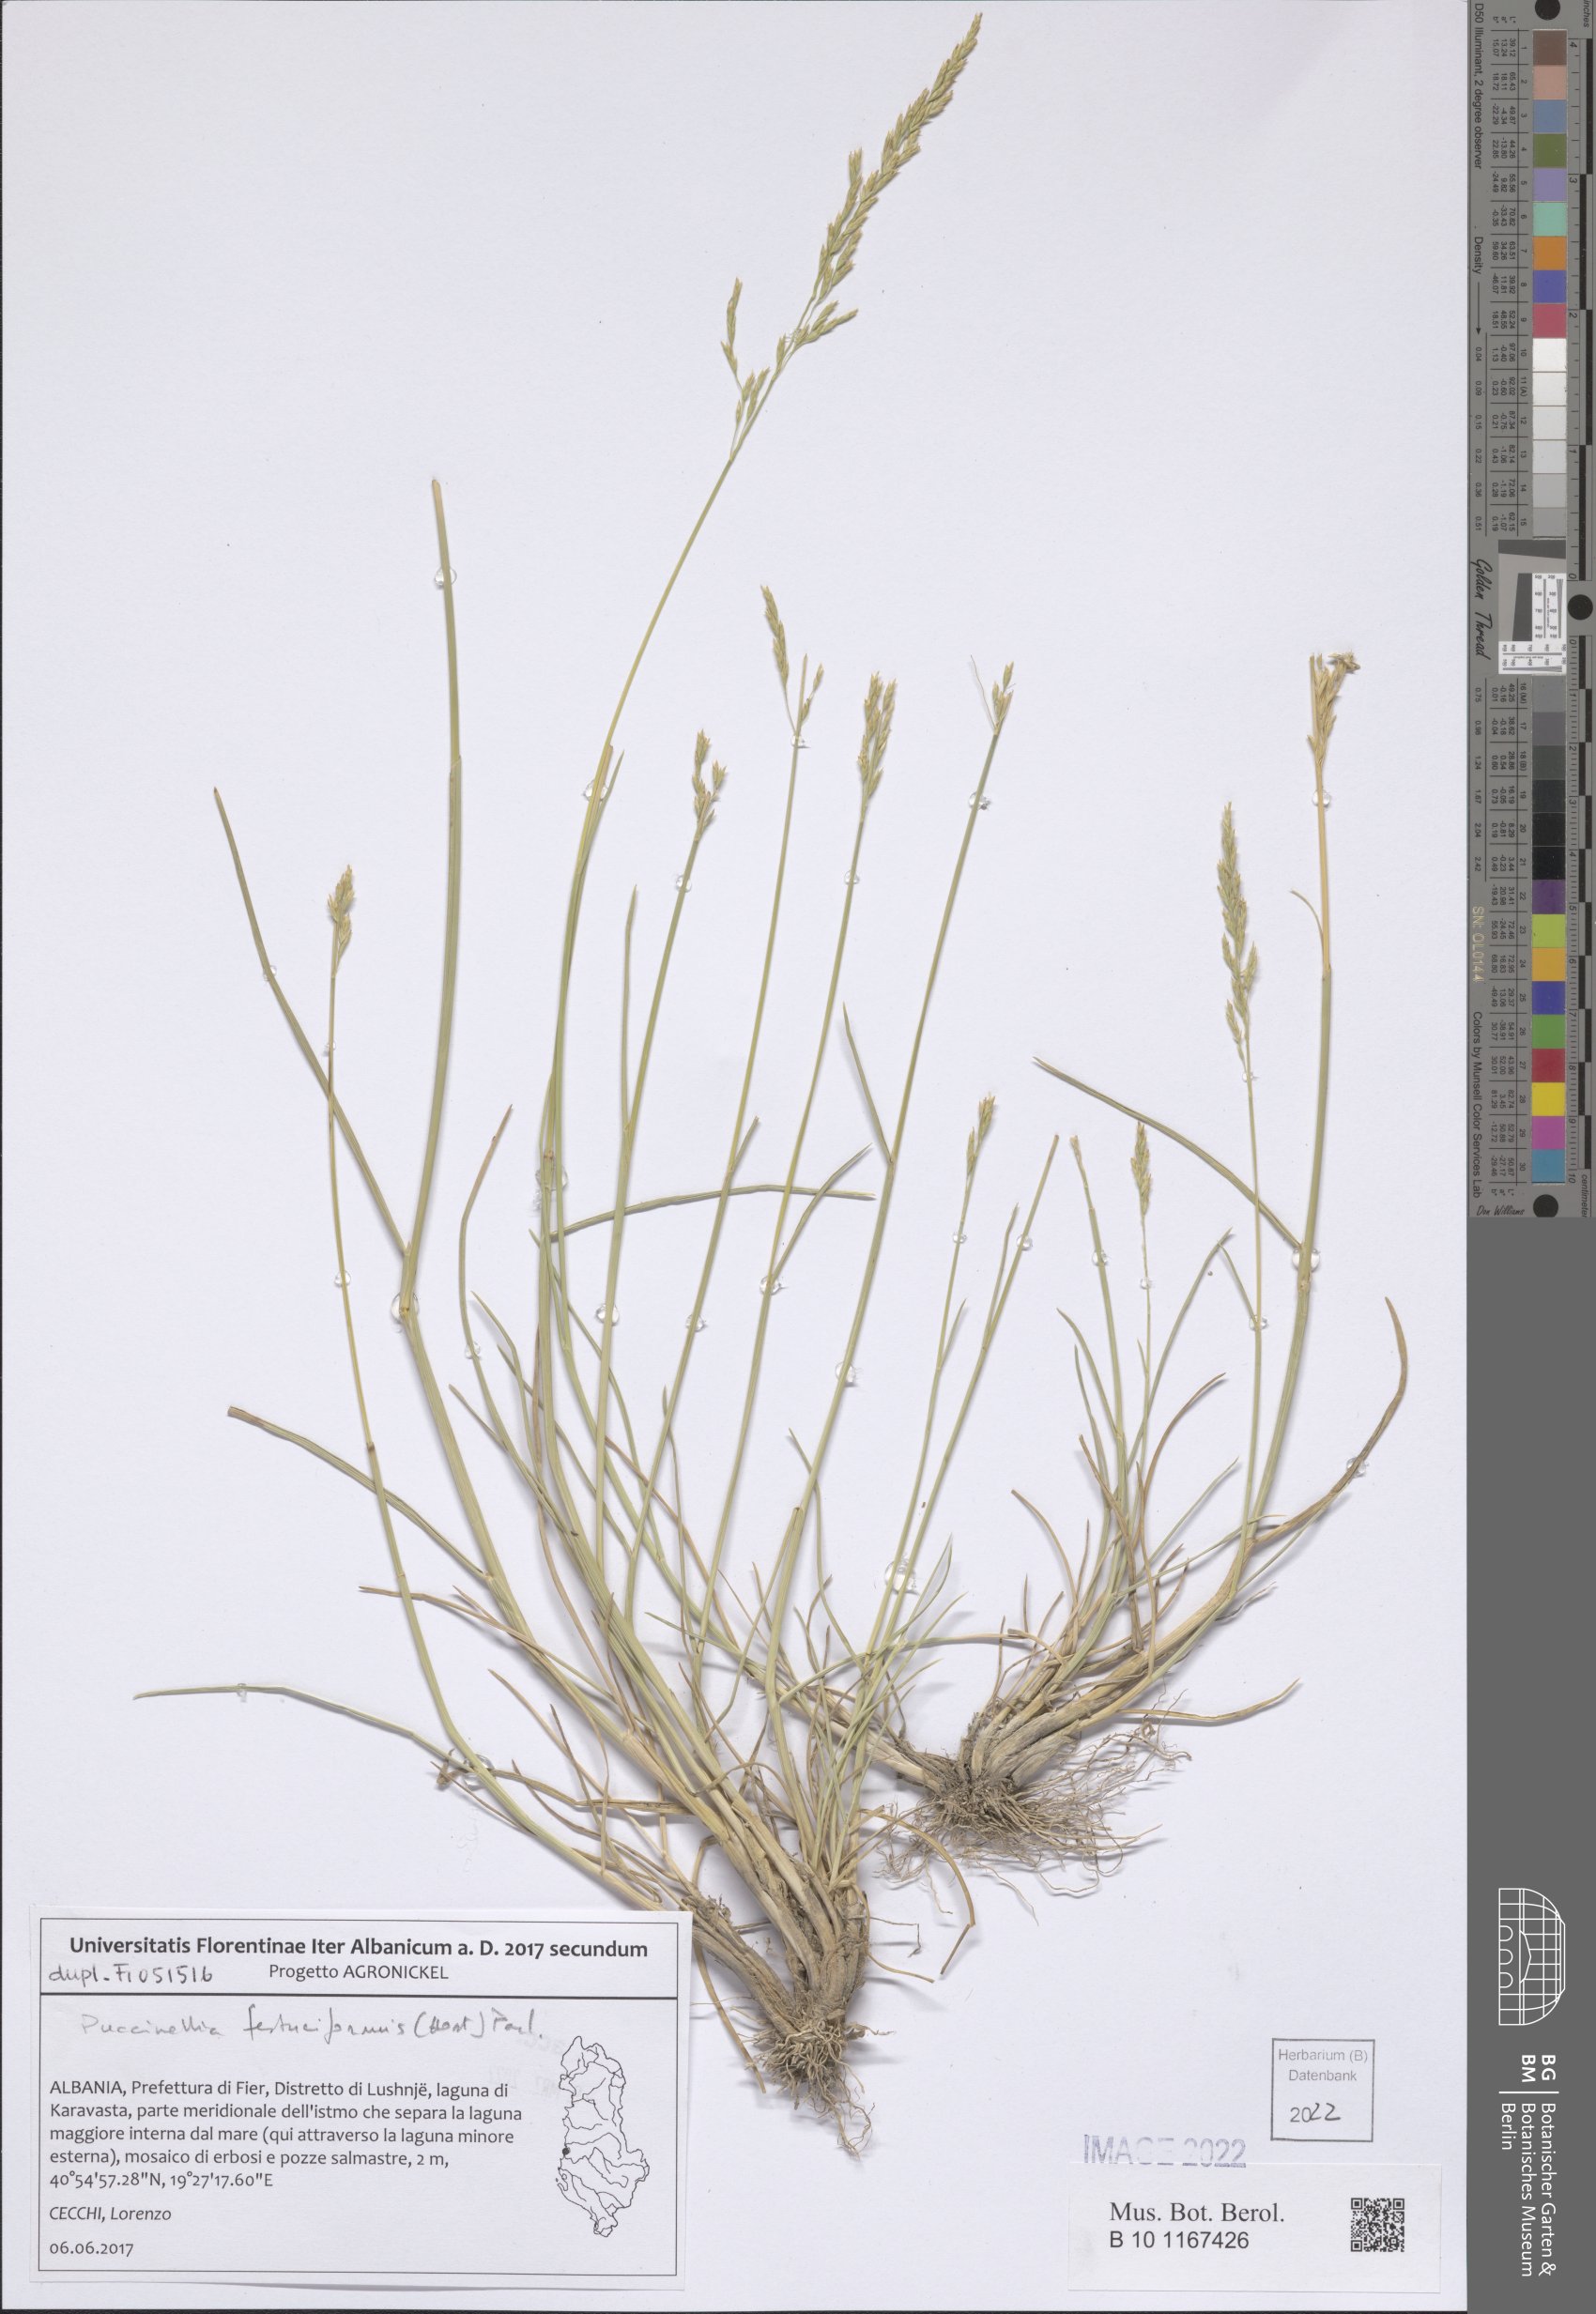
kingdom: Plantae
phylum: Tracheophyta
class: Liliopsida
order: Poales
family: Poaceae
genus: Puccinellia
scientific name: Puccinellia festuciformis
